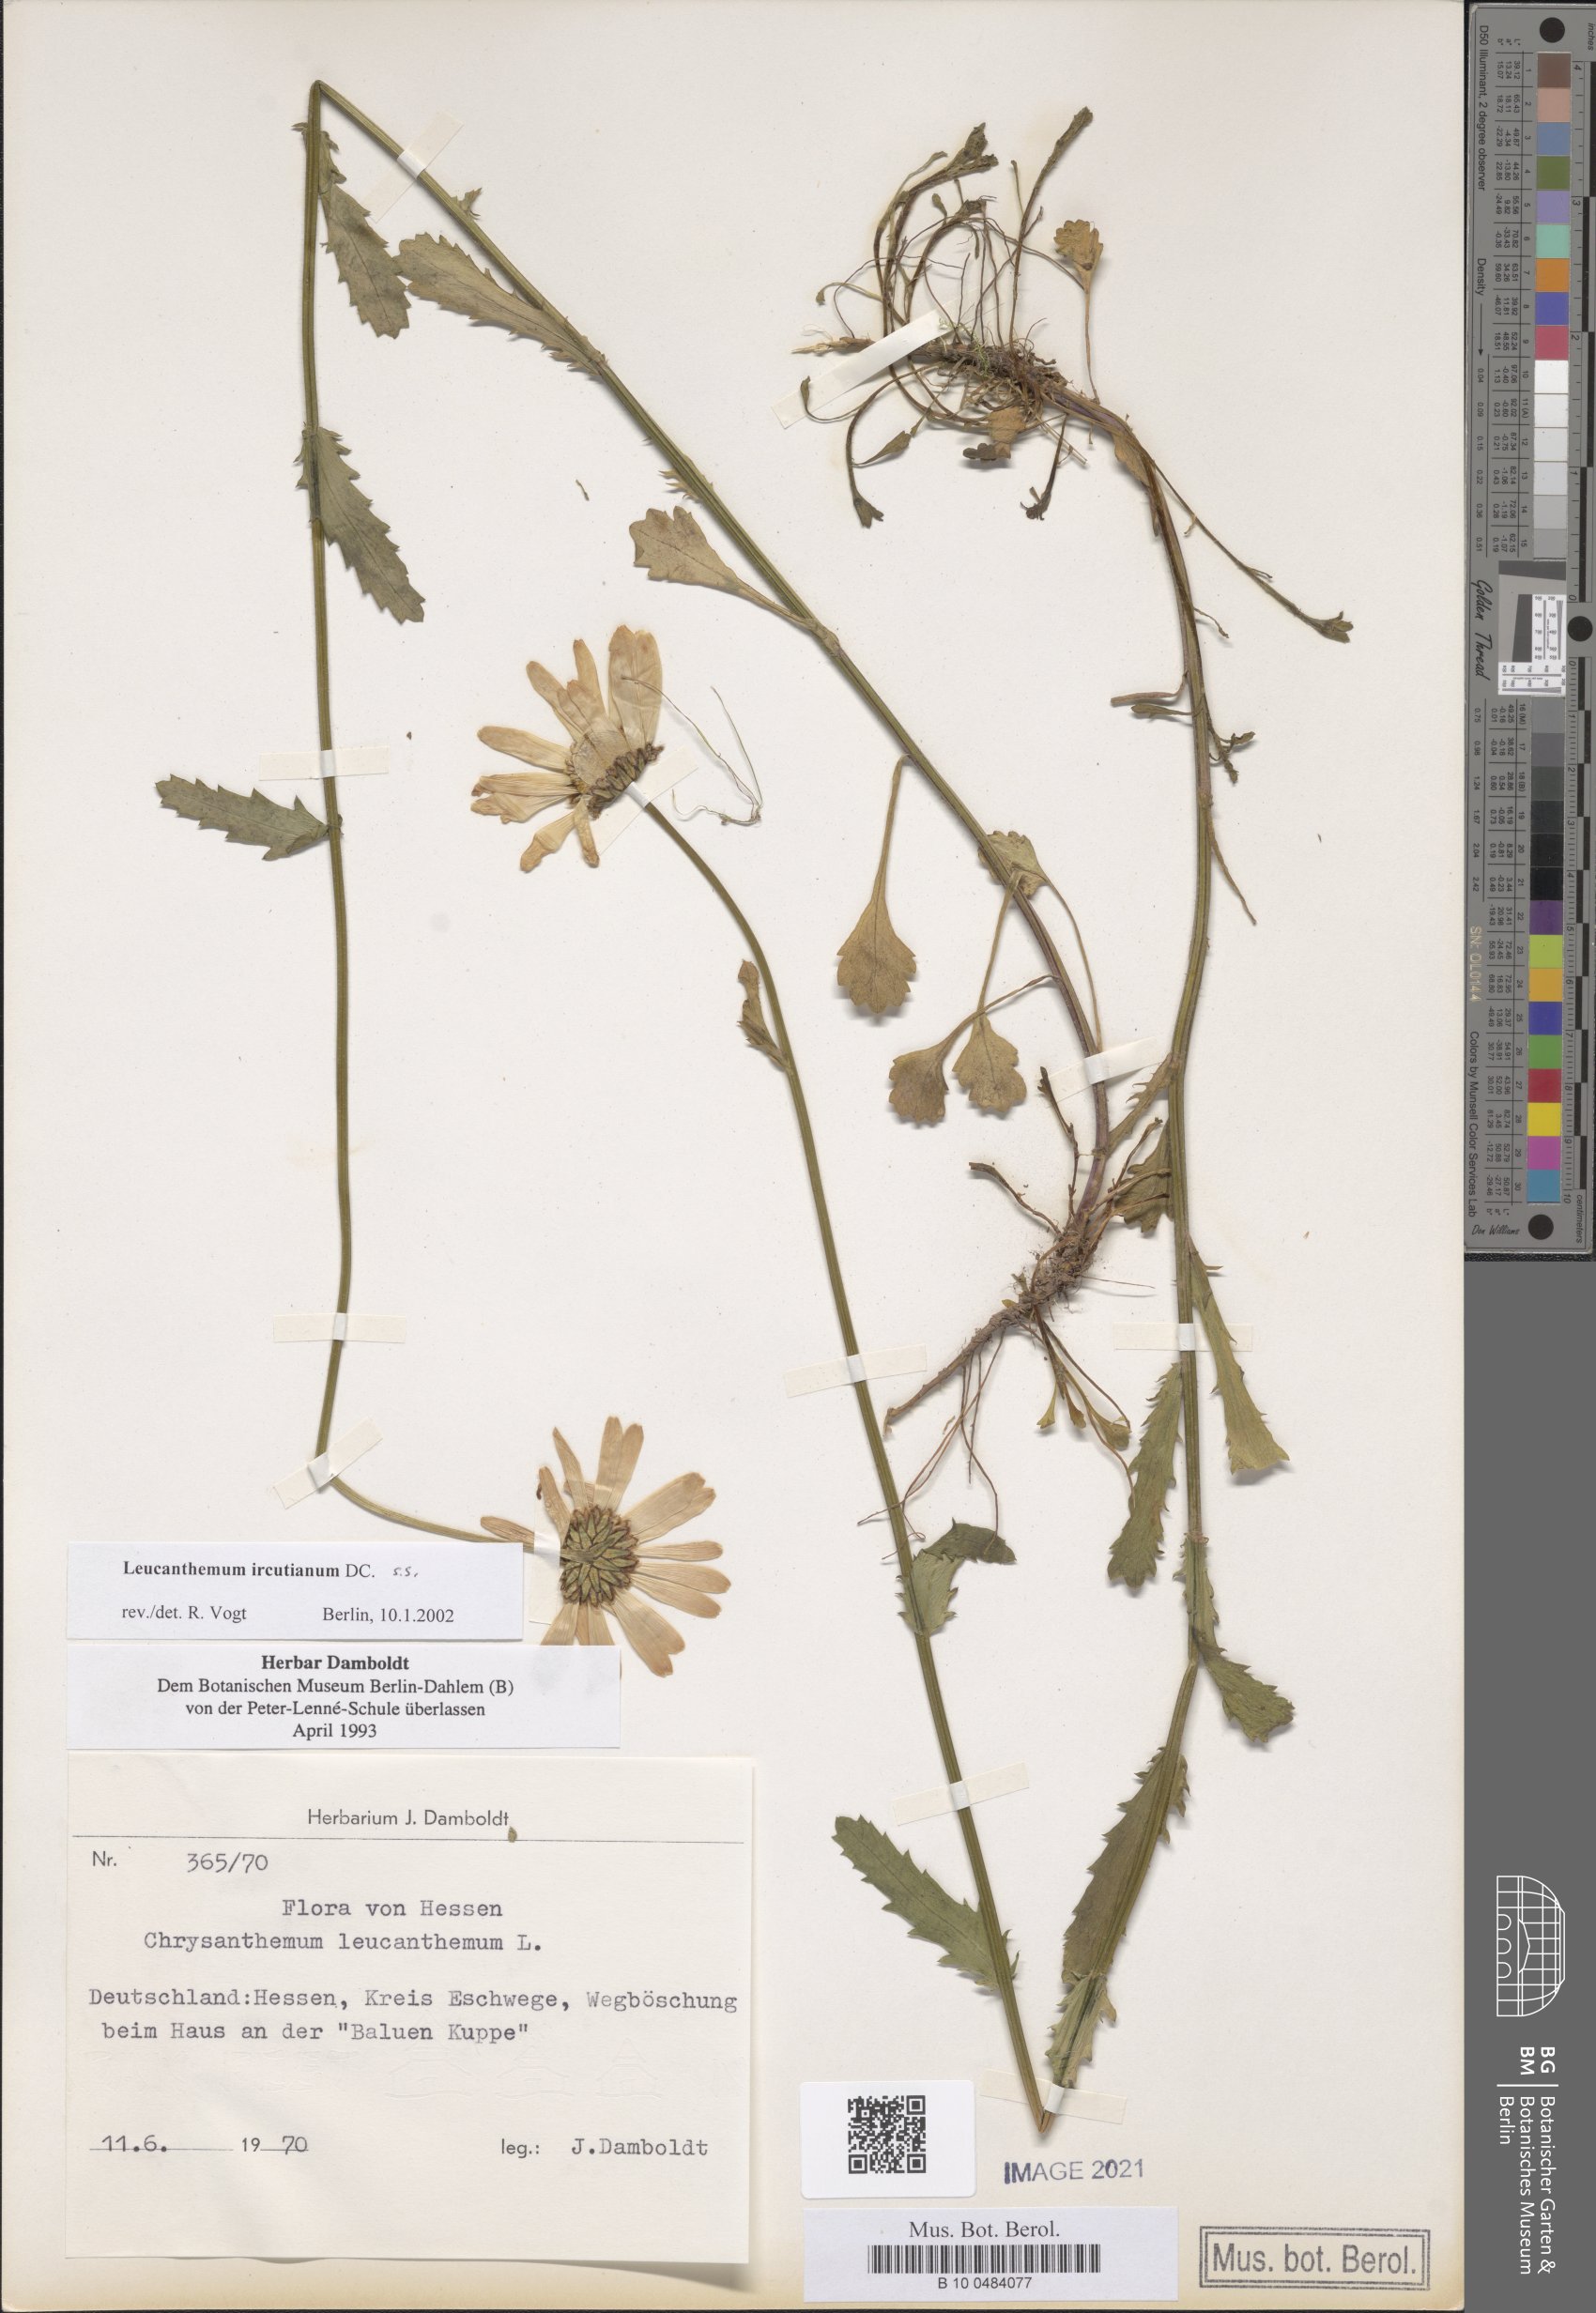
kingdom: Plantae
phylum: Tracheophyta
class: Magnoliopsida
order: Asterales
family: Asteraceae
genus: Leucanthemum
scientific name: Leucanthemum ircutianum
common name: Daisy
